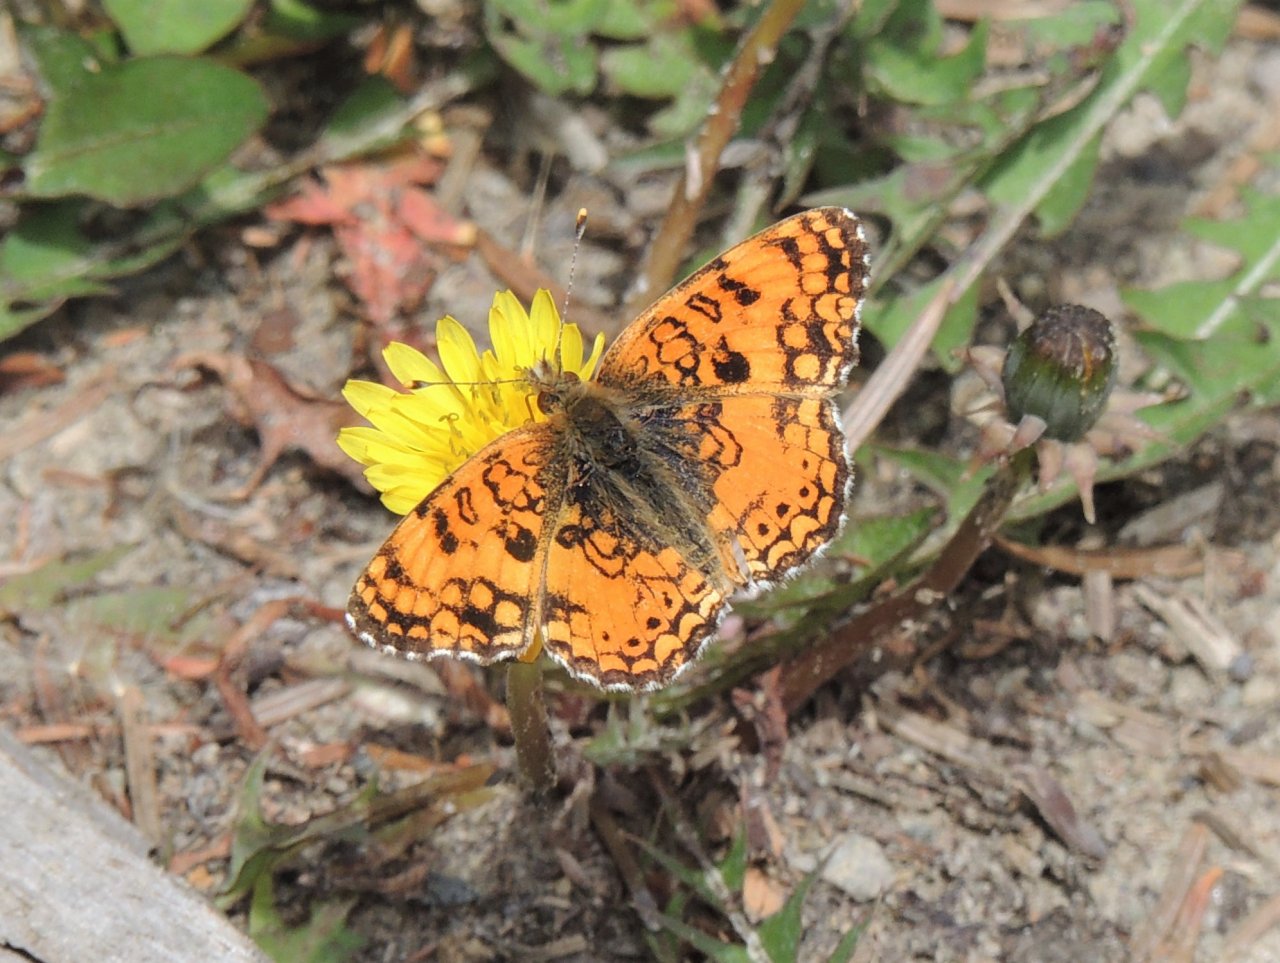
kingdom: Animalia
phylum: Arthropoda
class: Insecta
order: Lepidoptera
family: Nymphalidae
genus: Eresia
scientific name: Eresia aveyrona
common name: Mylitta Crescent
